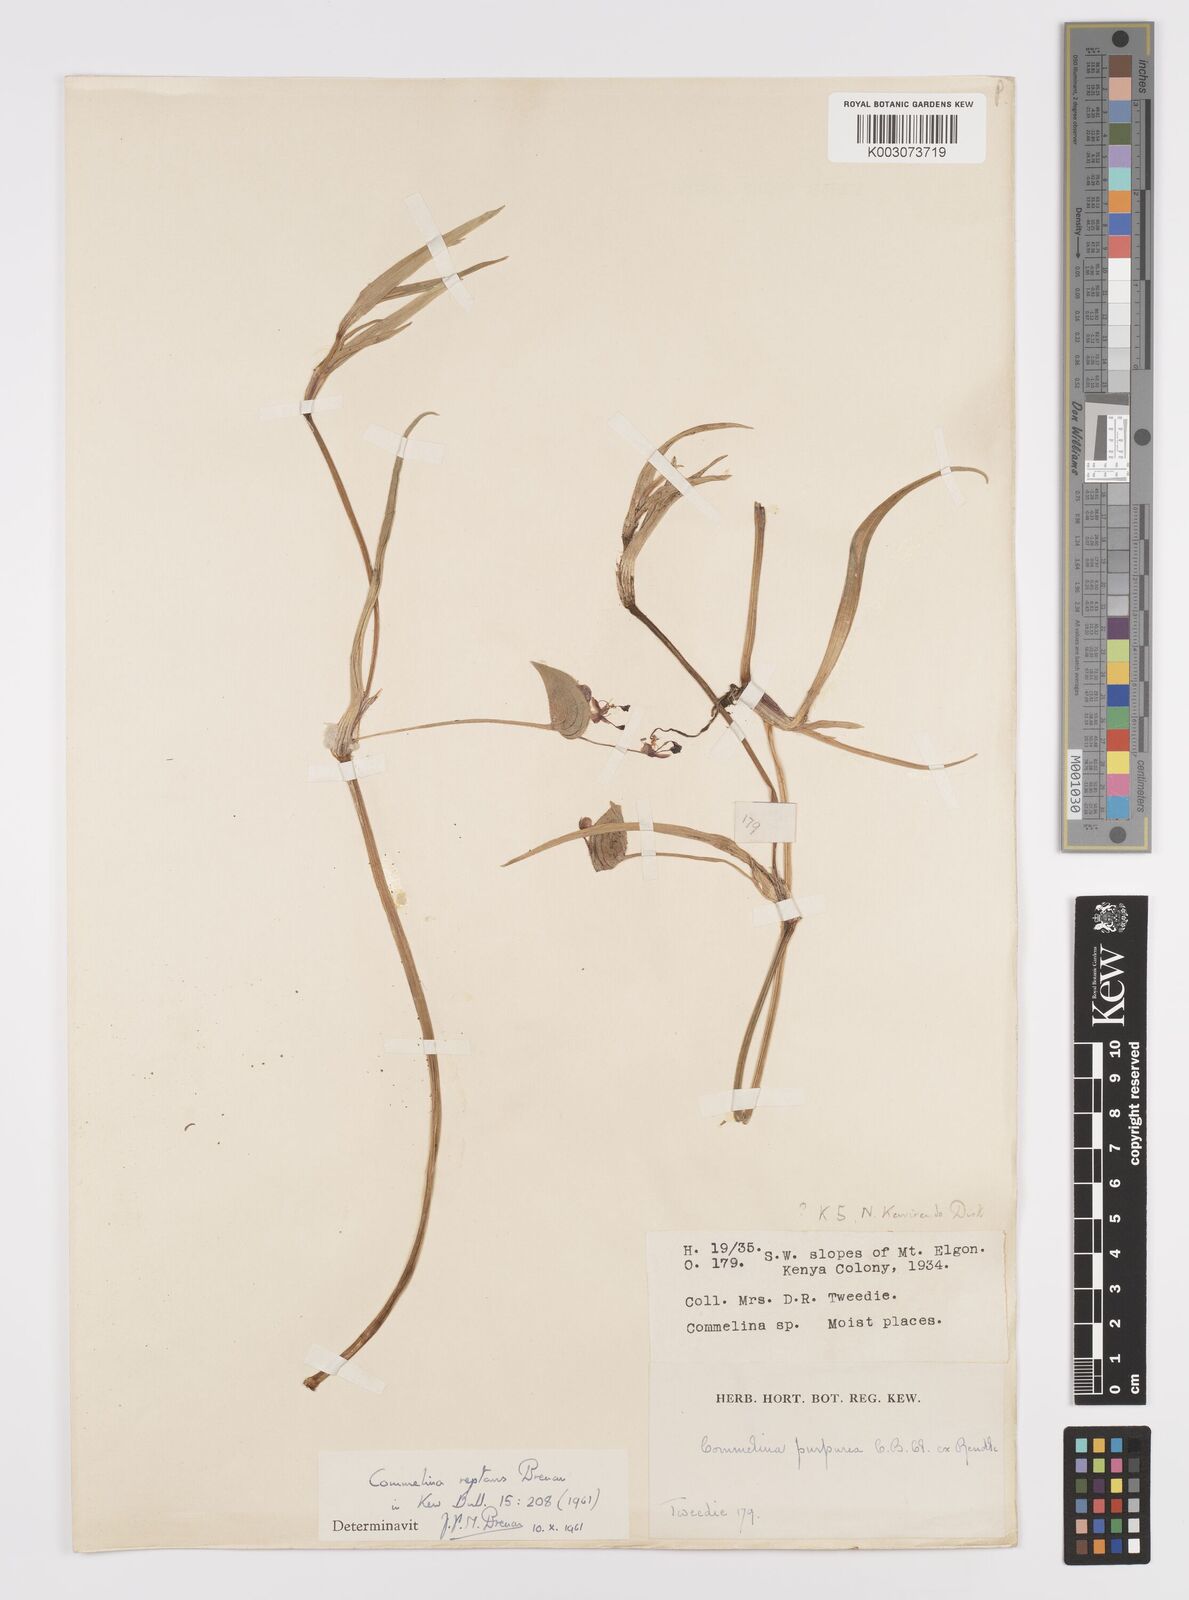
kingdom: Plantae
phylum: Tracheophyta
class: Liliopsida
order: Commelinales
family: Commelinaceae
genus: Commelina
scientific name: Commelina reptans
